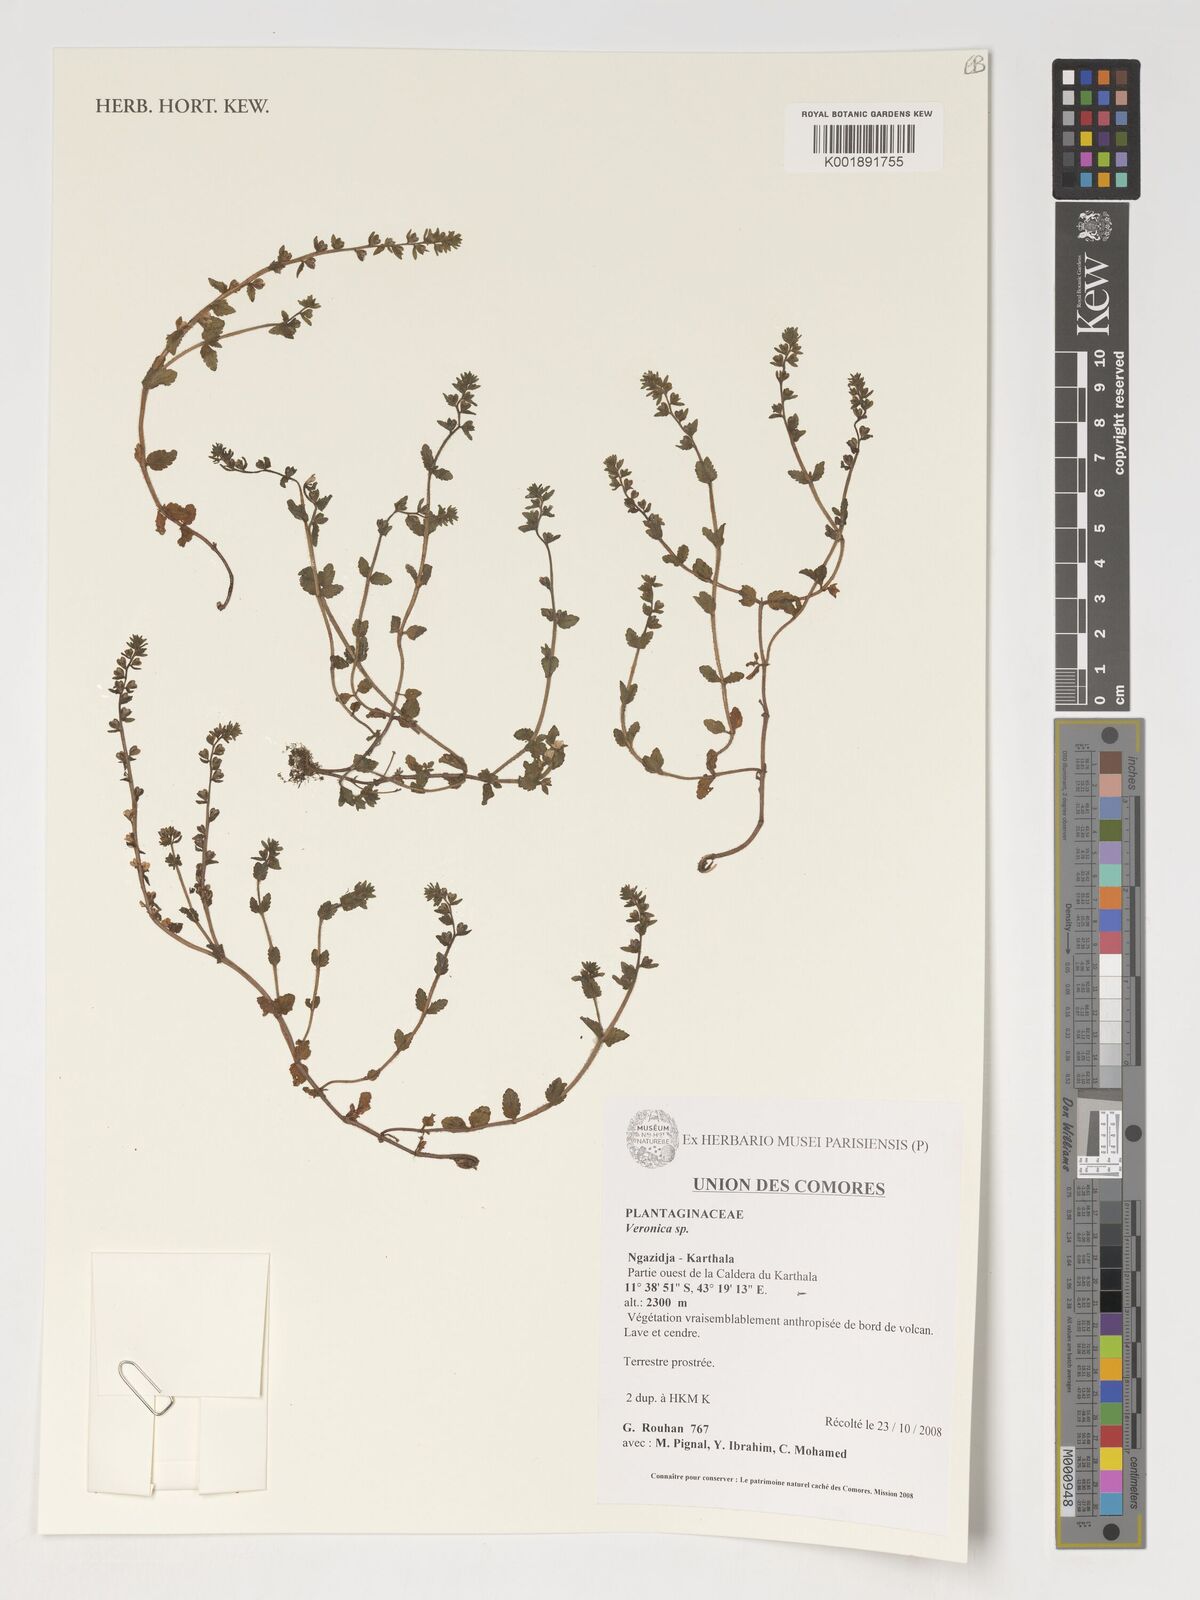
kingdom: Plantae
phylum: Tracheophyta
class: Magnoliopsida
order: Lamiales
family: Plantaginaceae
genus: Veronica
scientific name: Veronica
